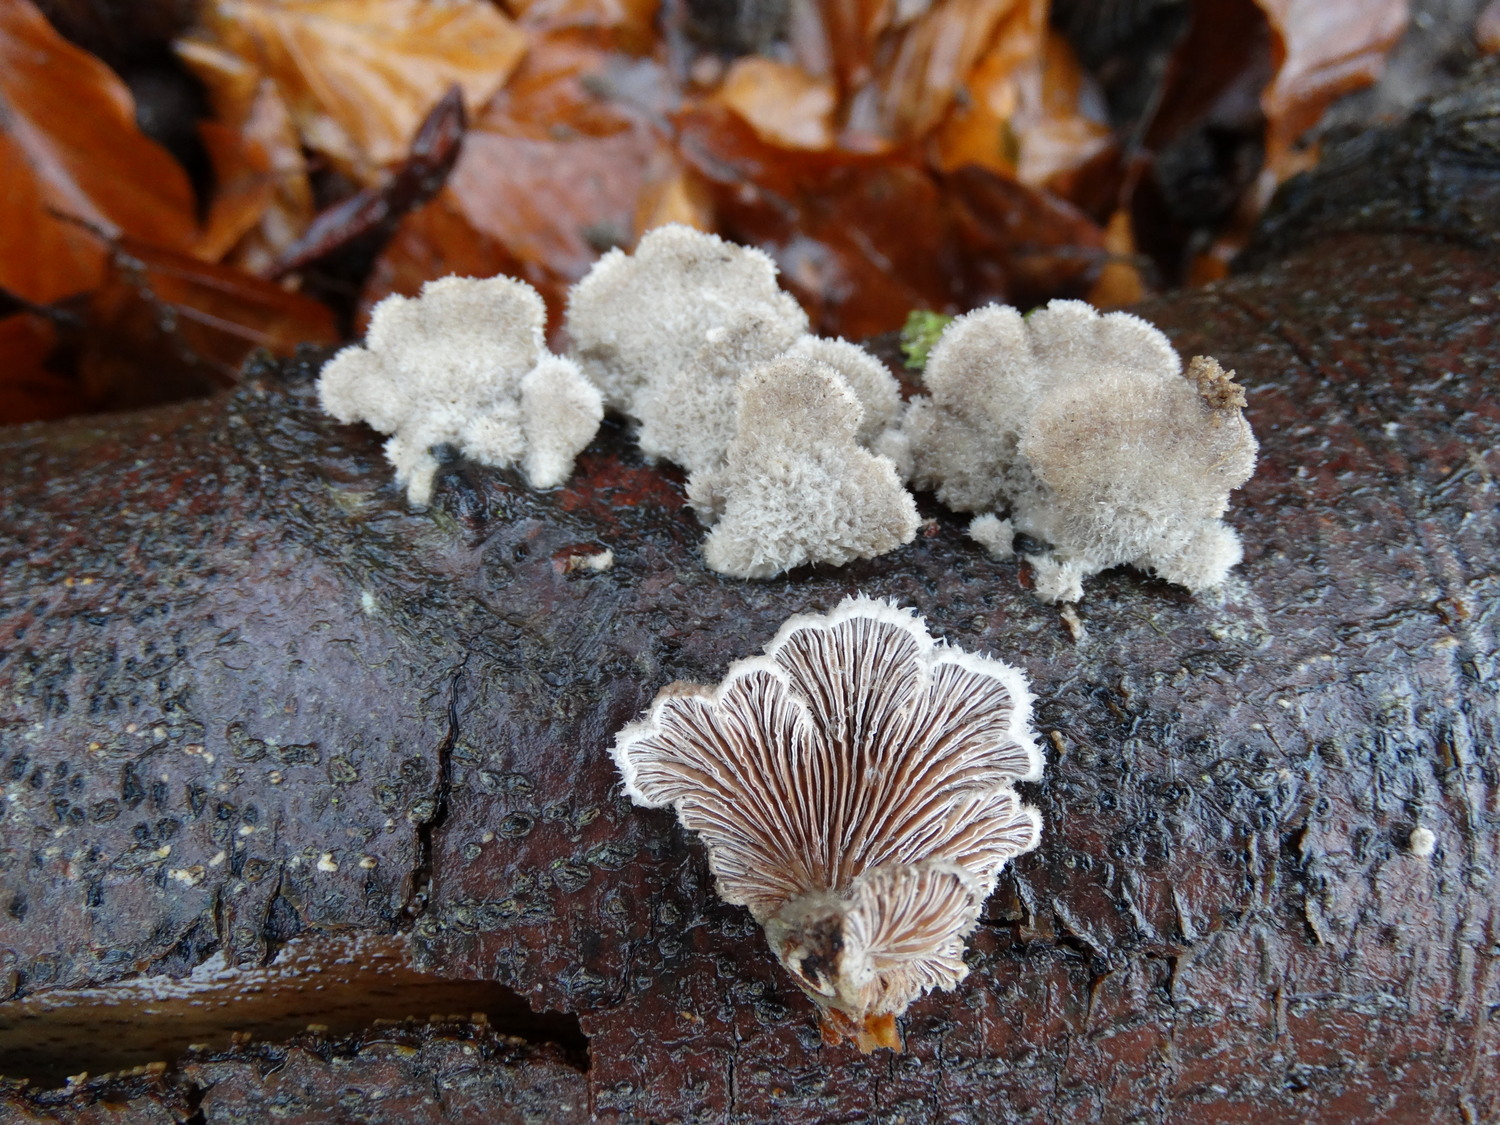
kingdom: Fungi
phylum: Basidiomycota
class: Agaricomycetes
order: Agaricales
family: Schizophyllaceae
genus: Schizophyllum
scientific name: Schizophyllum commune
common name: kløvblad
